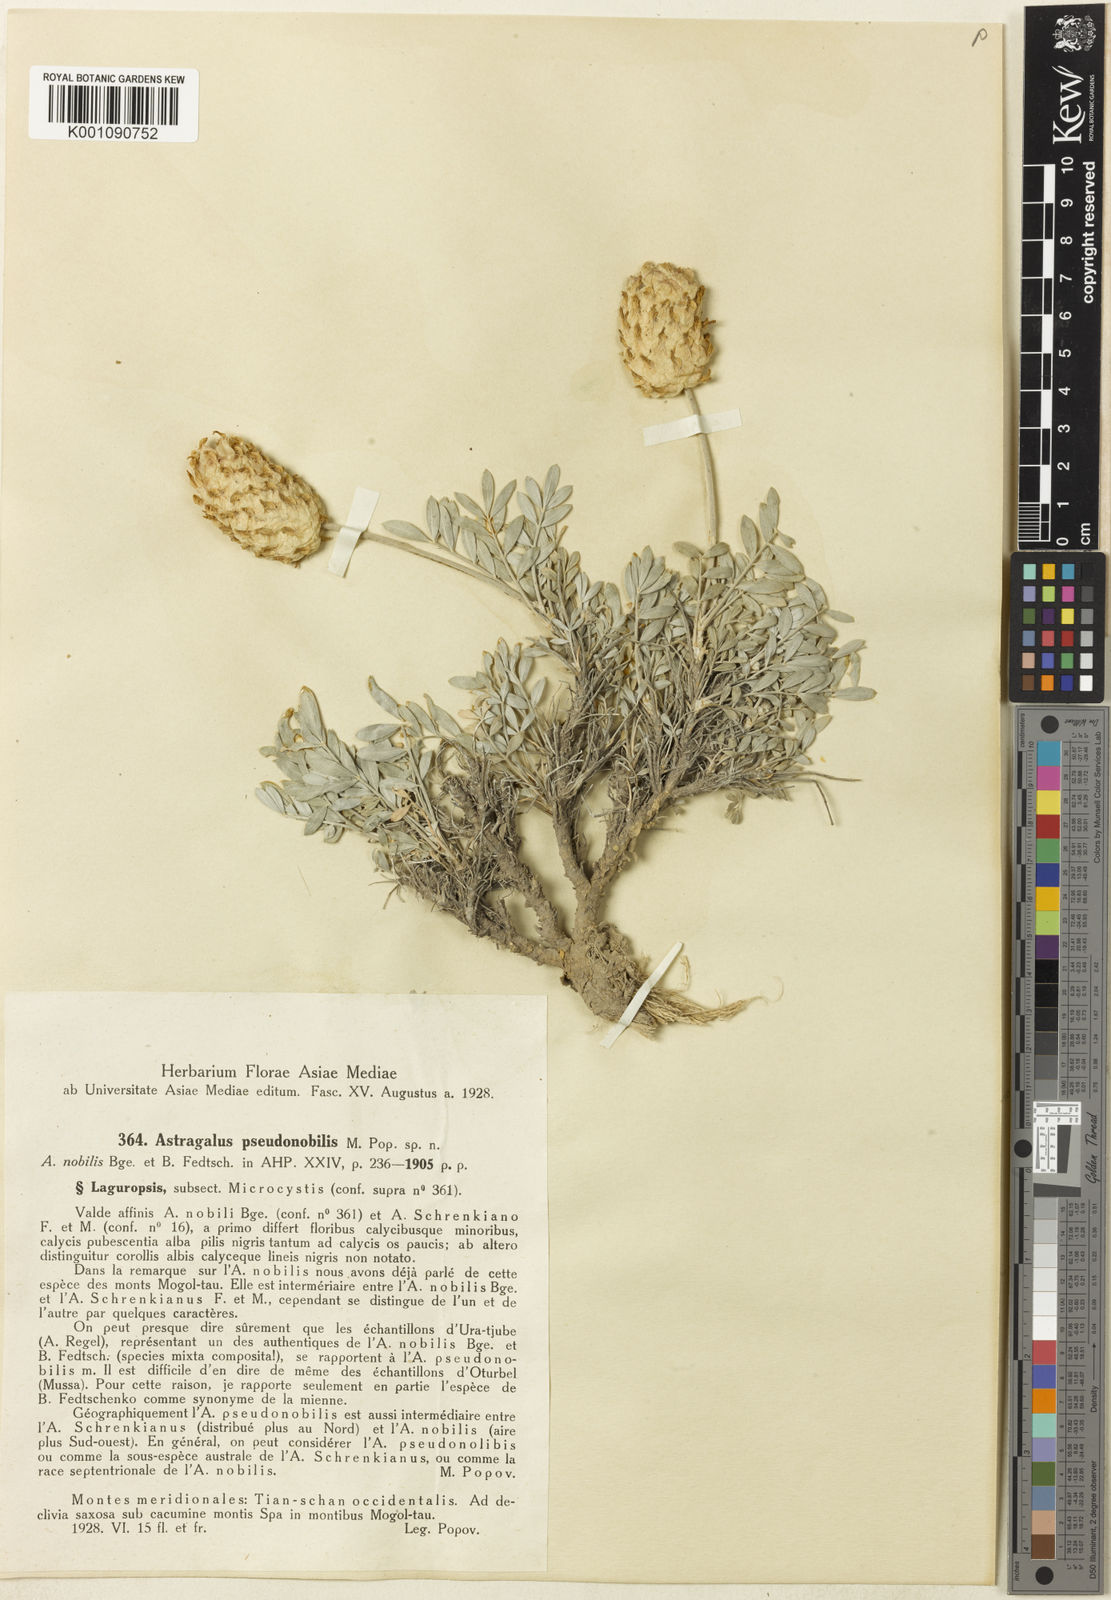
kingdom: Plantae
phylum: Tracheophyta
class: Magnoliopsida
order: Fabales
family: Fabaceae
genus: Astragalus
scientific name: Astragalus
